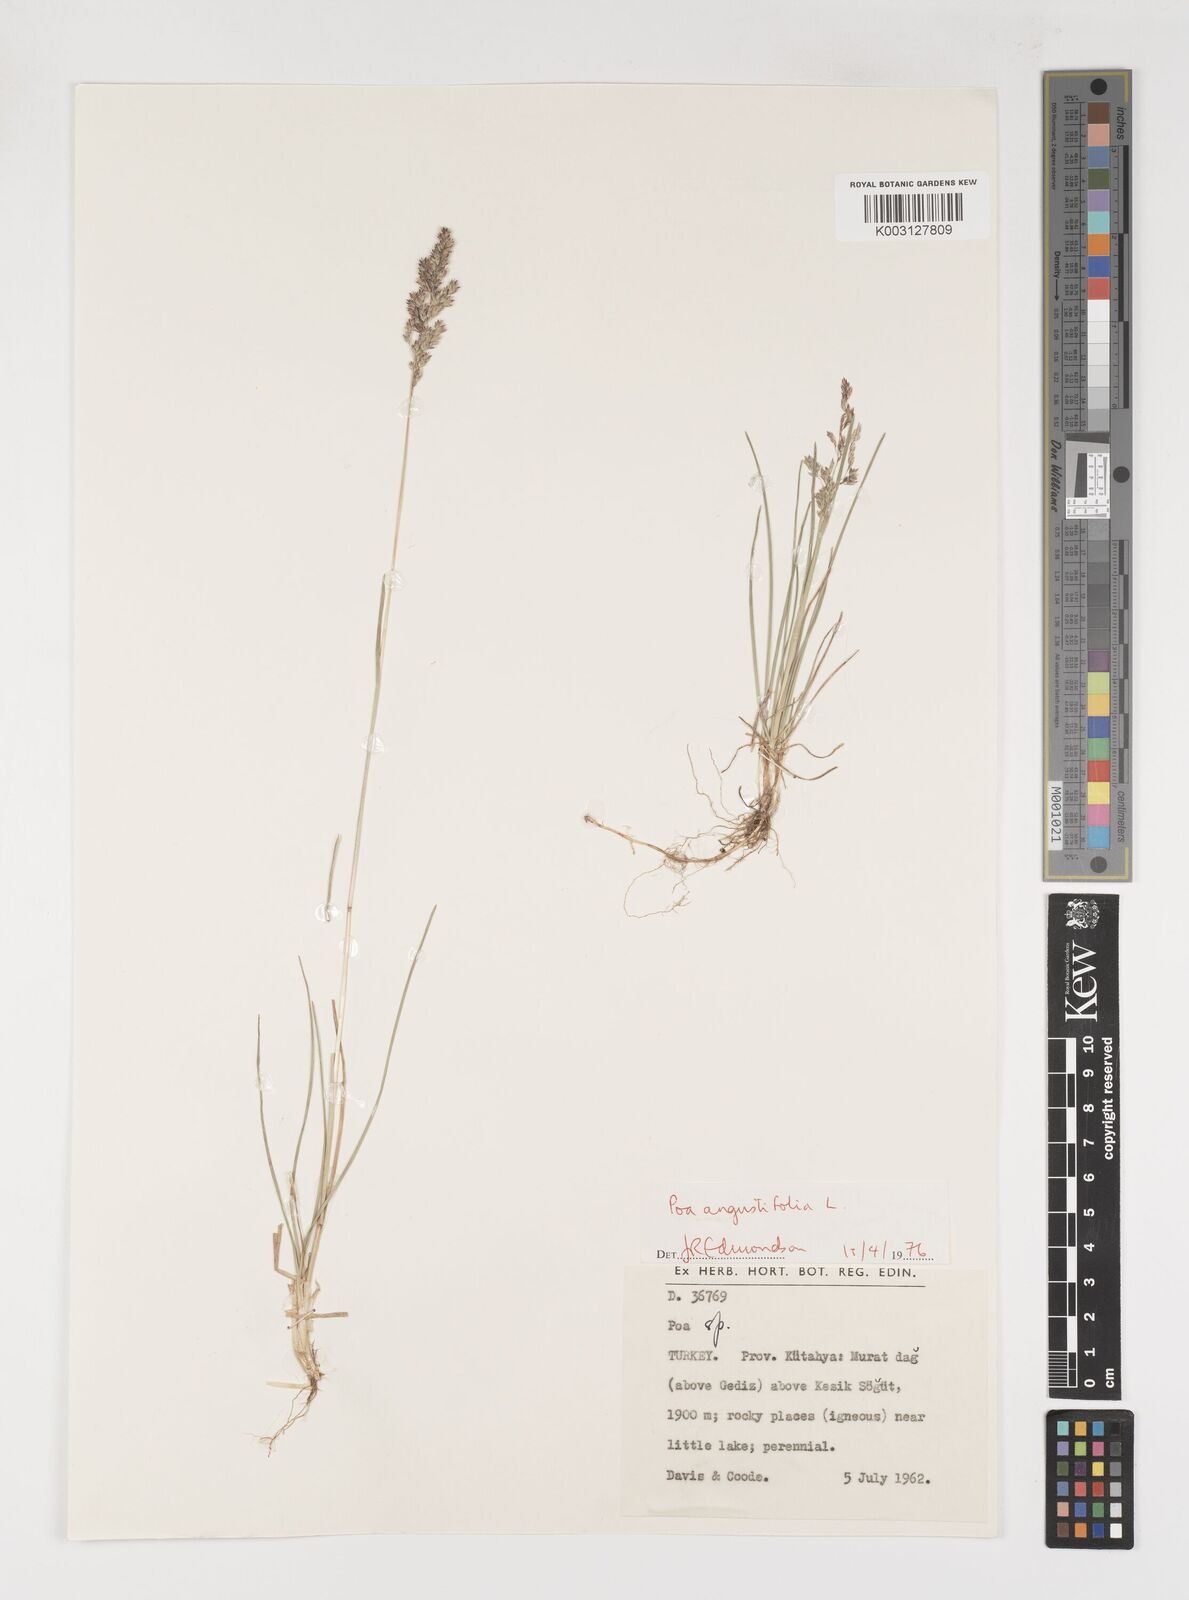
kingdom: Plantae
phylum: Tracheophyta
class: Liliopsida
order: Poales
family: Poaceae
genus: Poa
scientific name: Poa angustifolia
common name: Narrow-leaved meadow-grass
